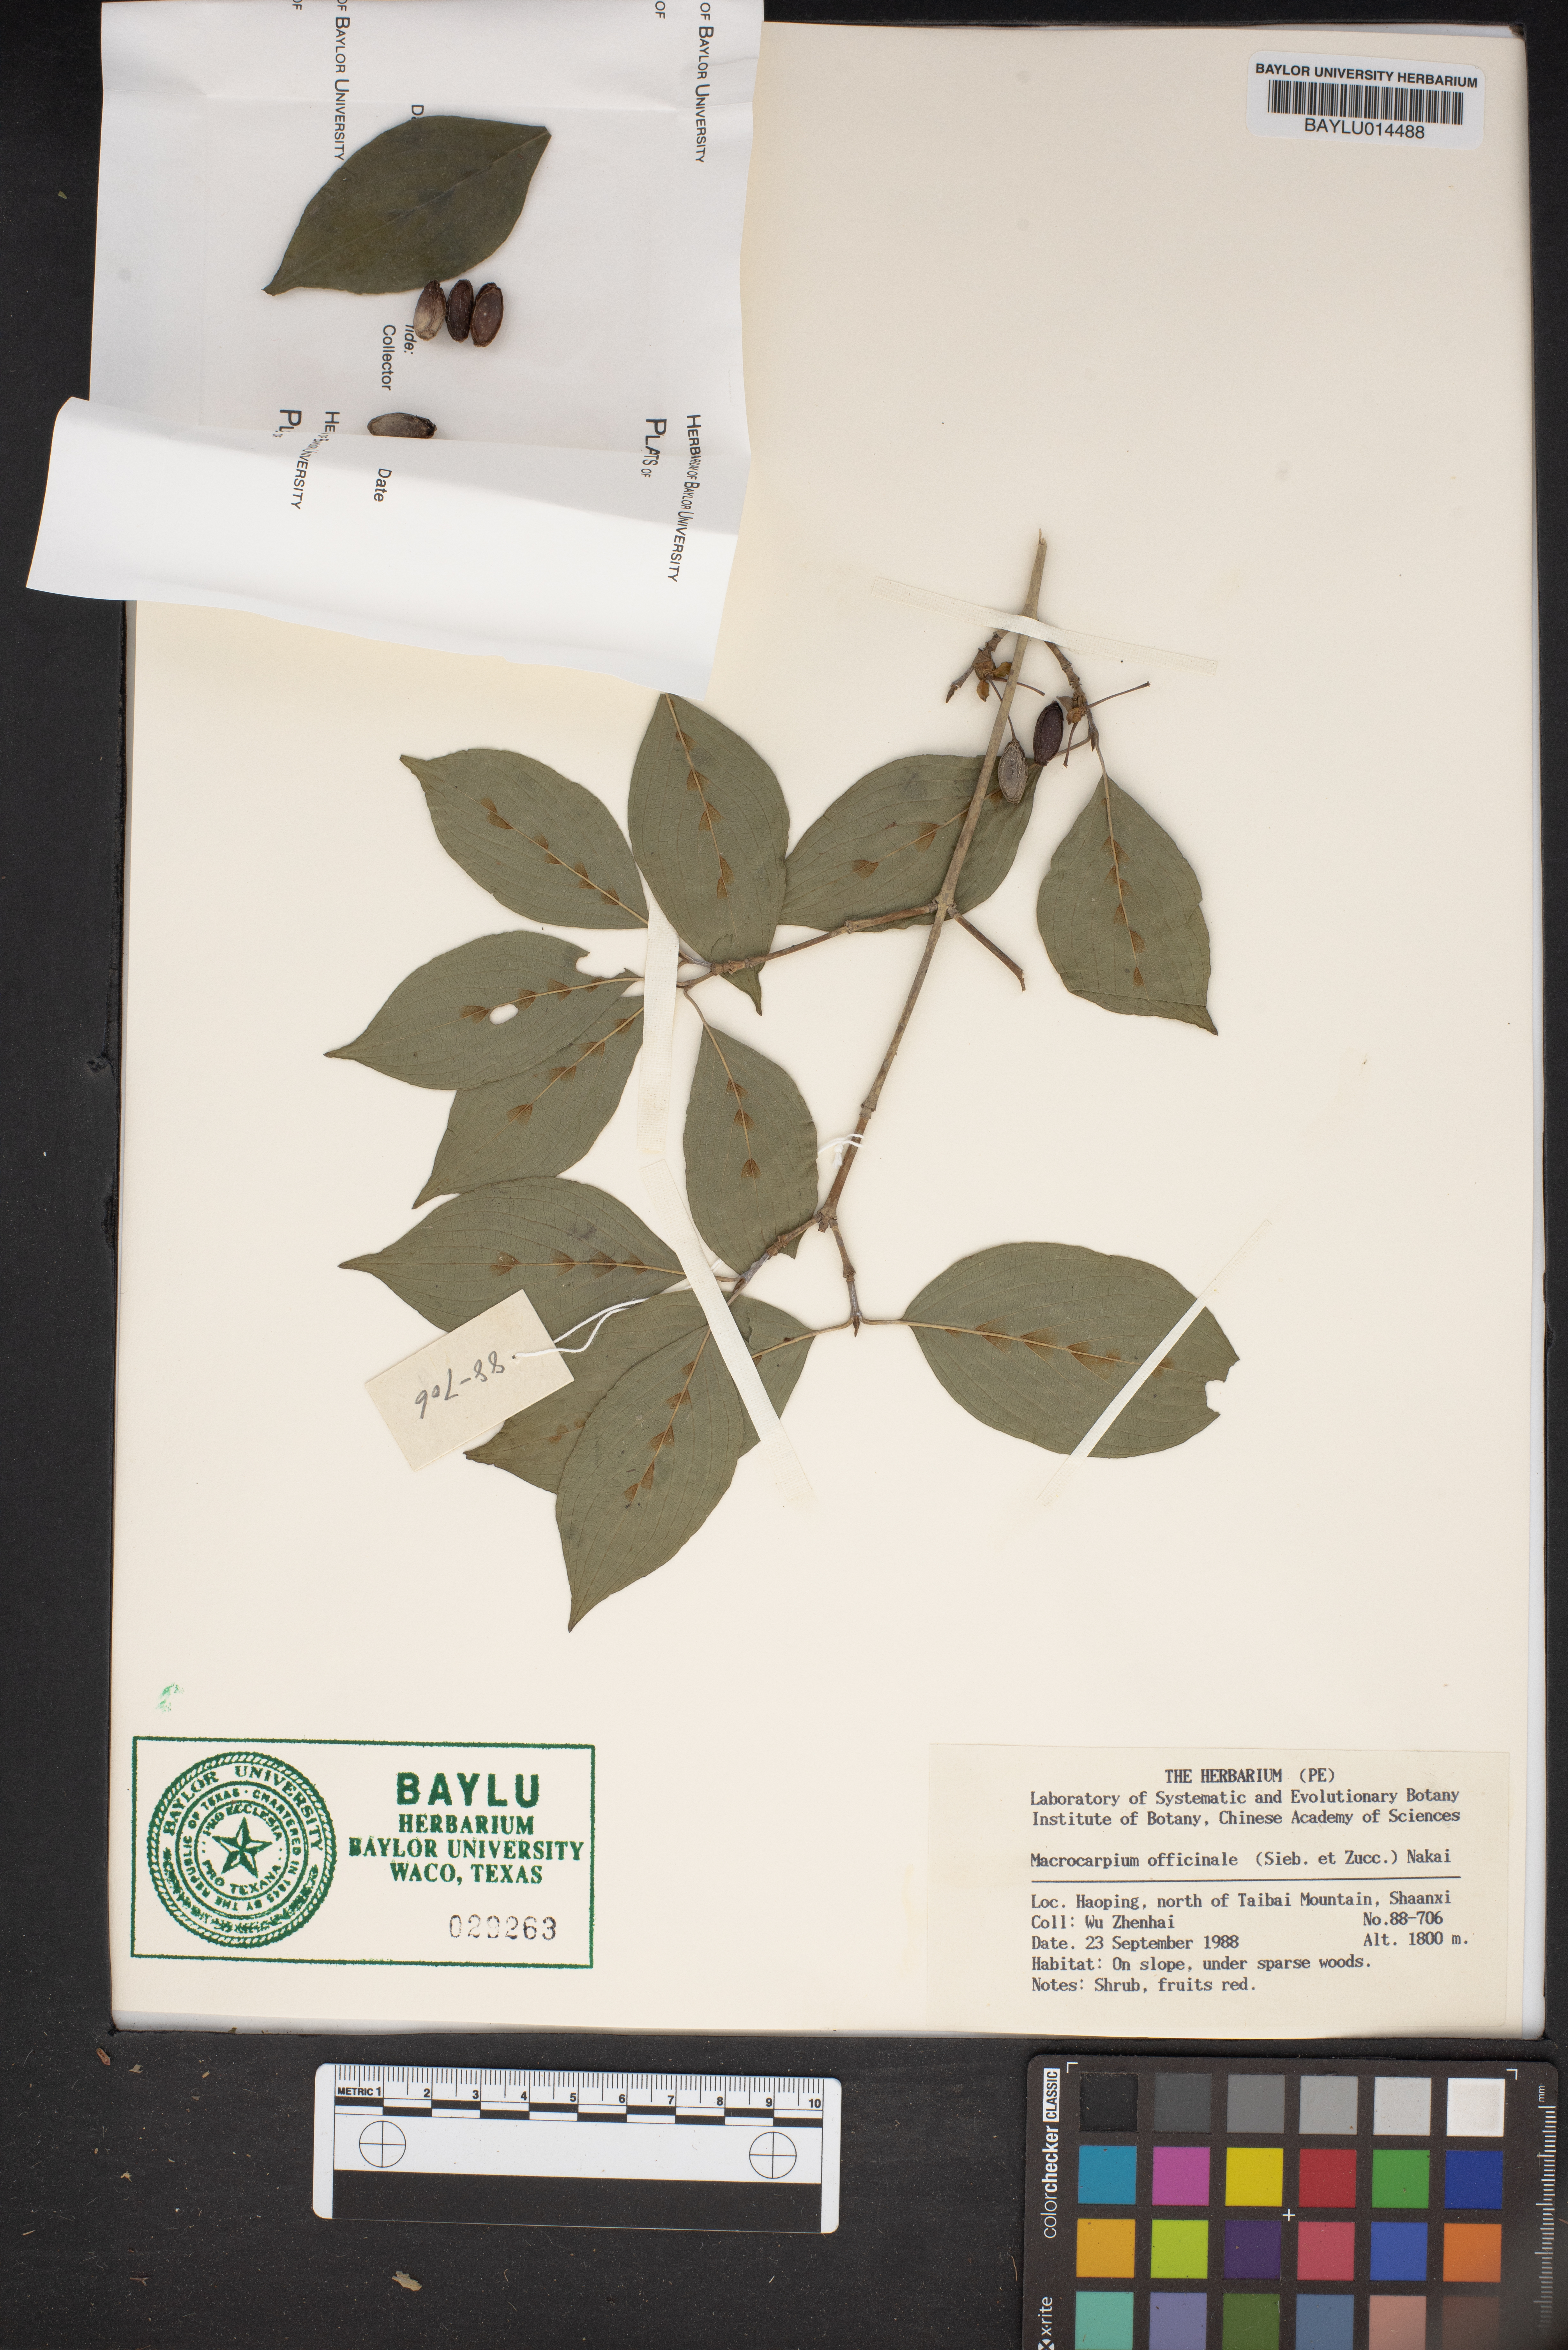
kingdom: Plantae
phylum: Tracheophyta
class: Magnoliopsida
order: Cornales
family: Cornaceae
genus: Cornus
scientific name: Cornus officinalis
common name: Asiatic dogwood
